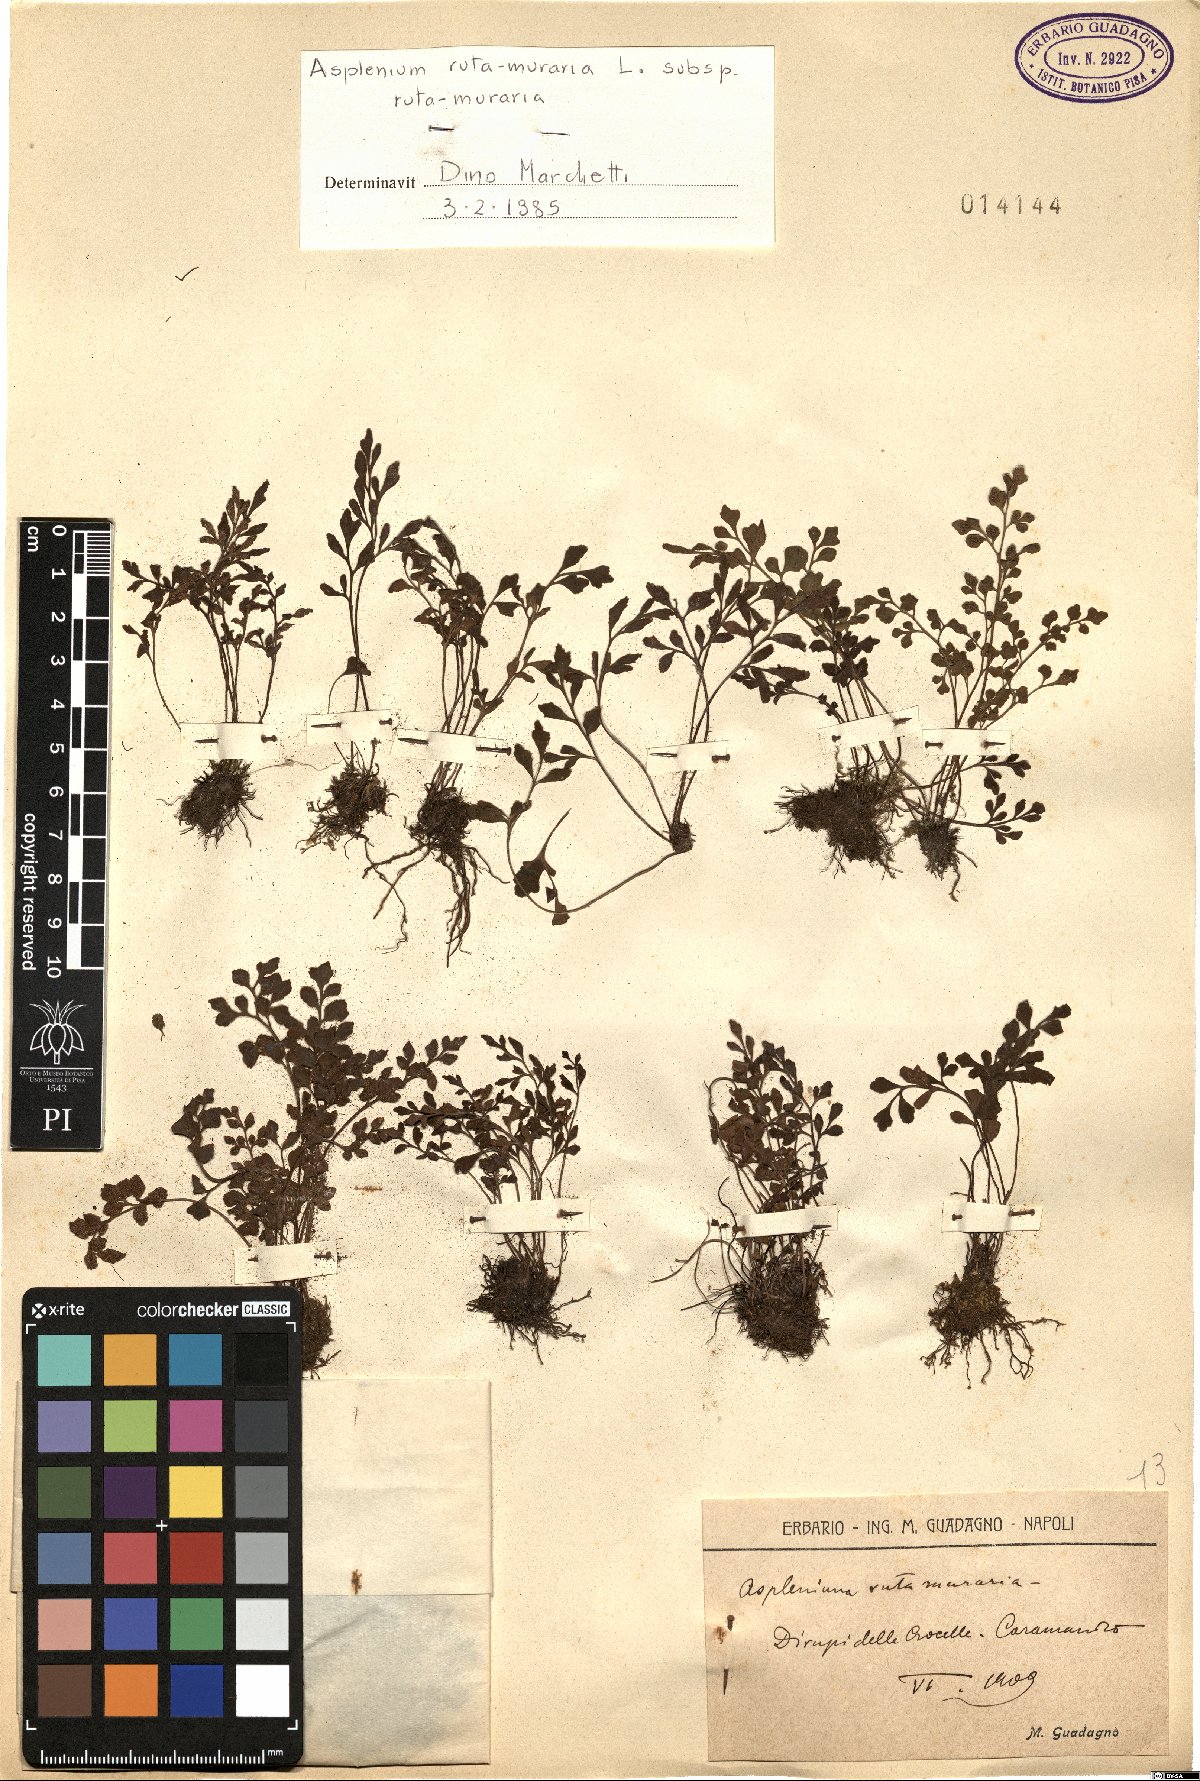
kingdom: Plantae
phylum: Tracheophyta
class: Polypodiopsida
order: Polypodiales
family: Aspleniaceae
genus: Asplenium
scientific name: Asplenium ruta-muraria
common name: Wall-rue
